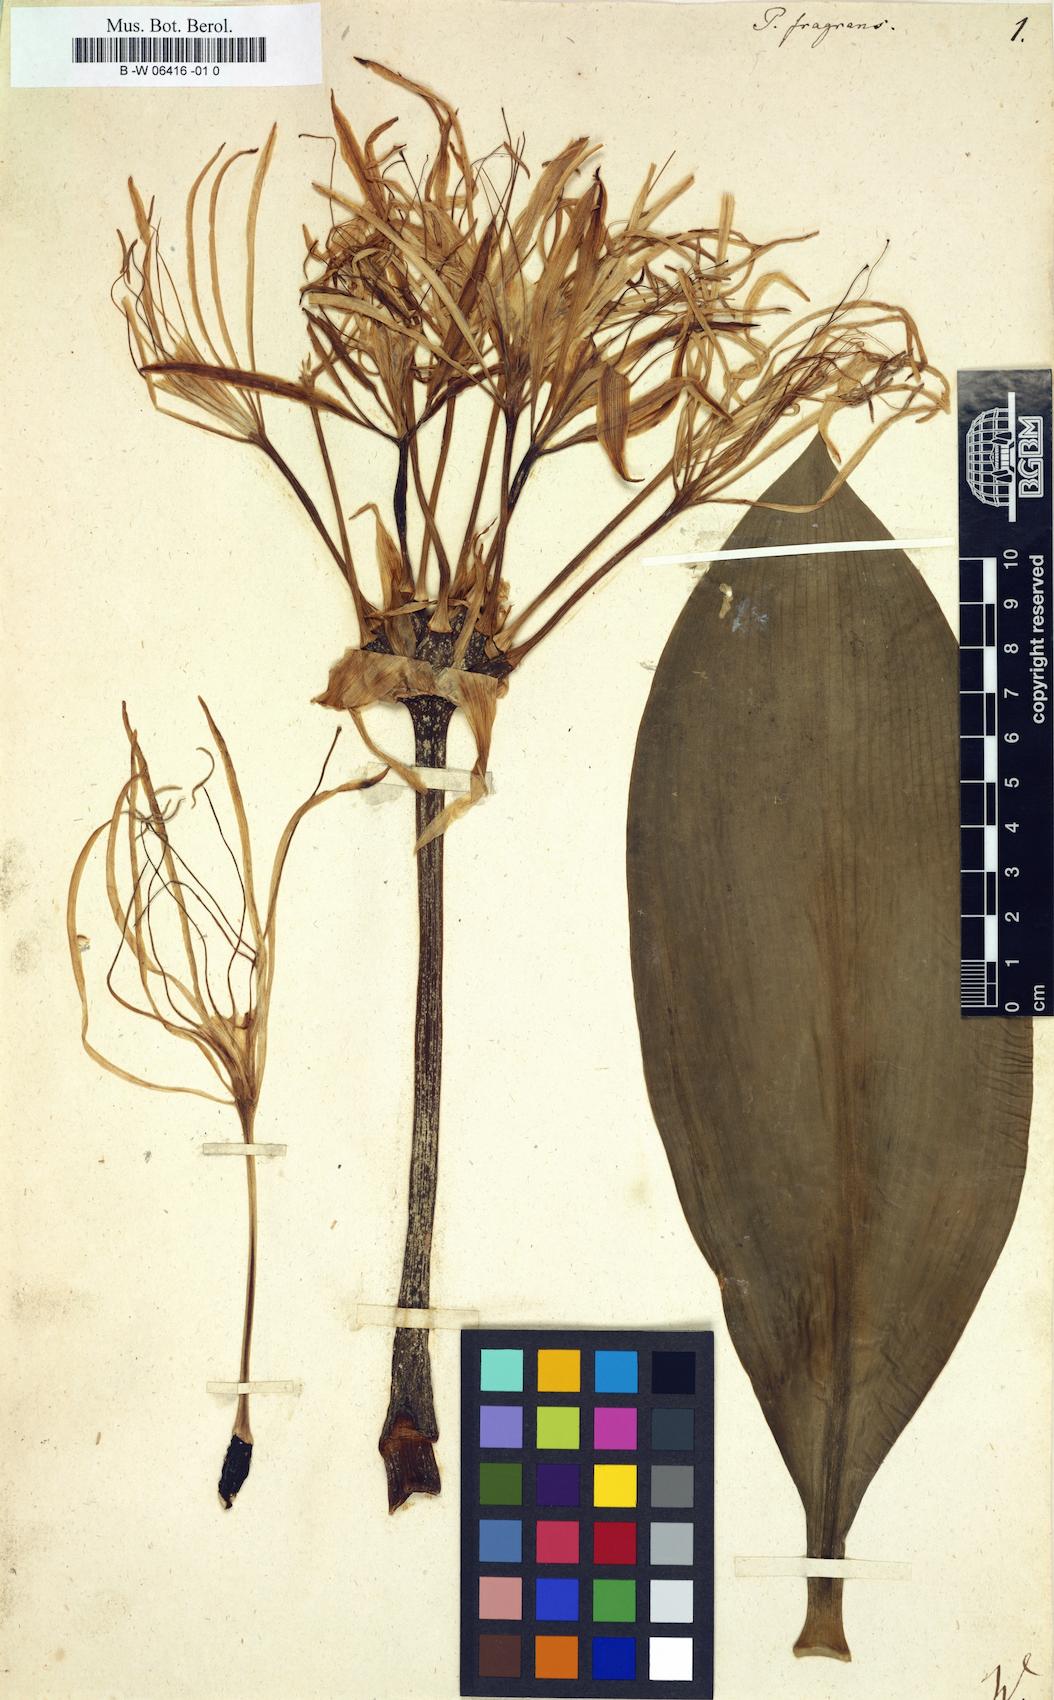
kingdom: Plantae
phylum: Tracheophyta
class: Liliopsida
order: Asparagales
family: Amaryllidaceae
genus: Pancratium
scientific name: Pancratium fragrans
